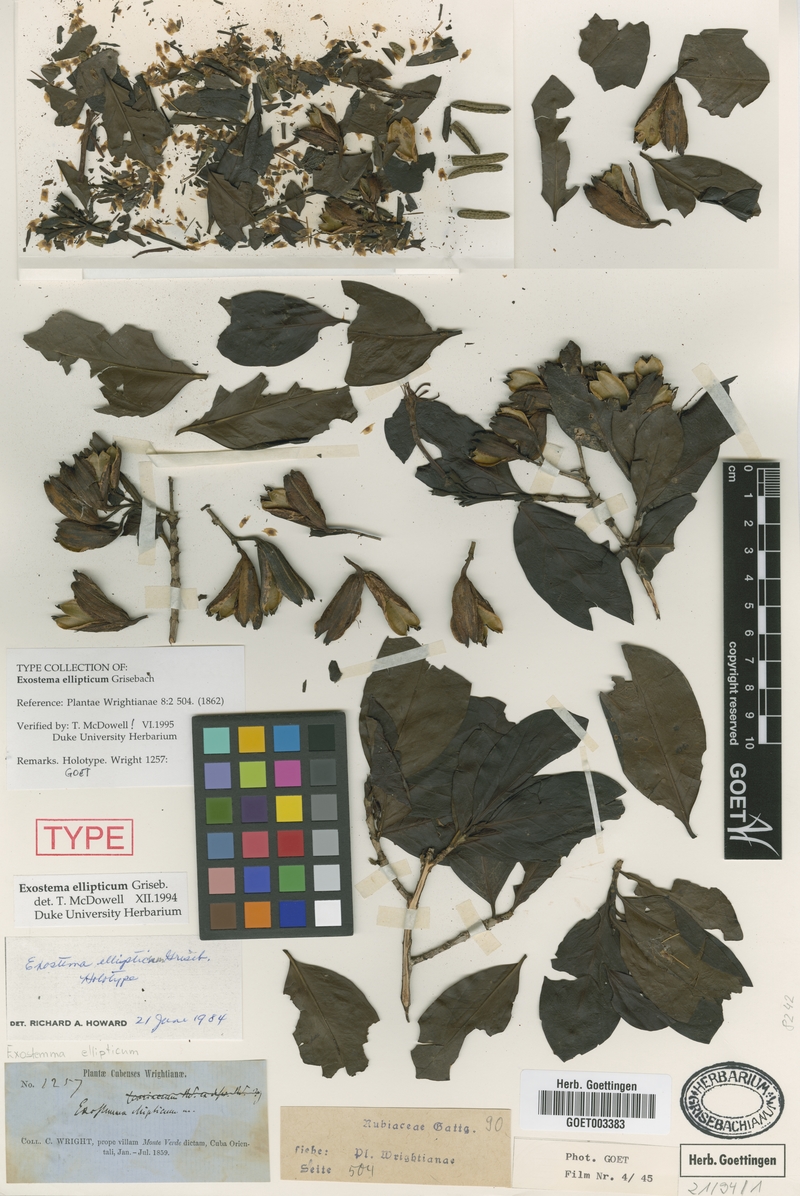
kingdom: Plantae
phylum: Tracheophyta
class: Magnoliopsida
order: Gentianales
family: Rubiaceae
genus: Solenandra
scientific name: Solenandra elliptica
